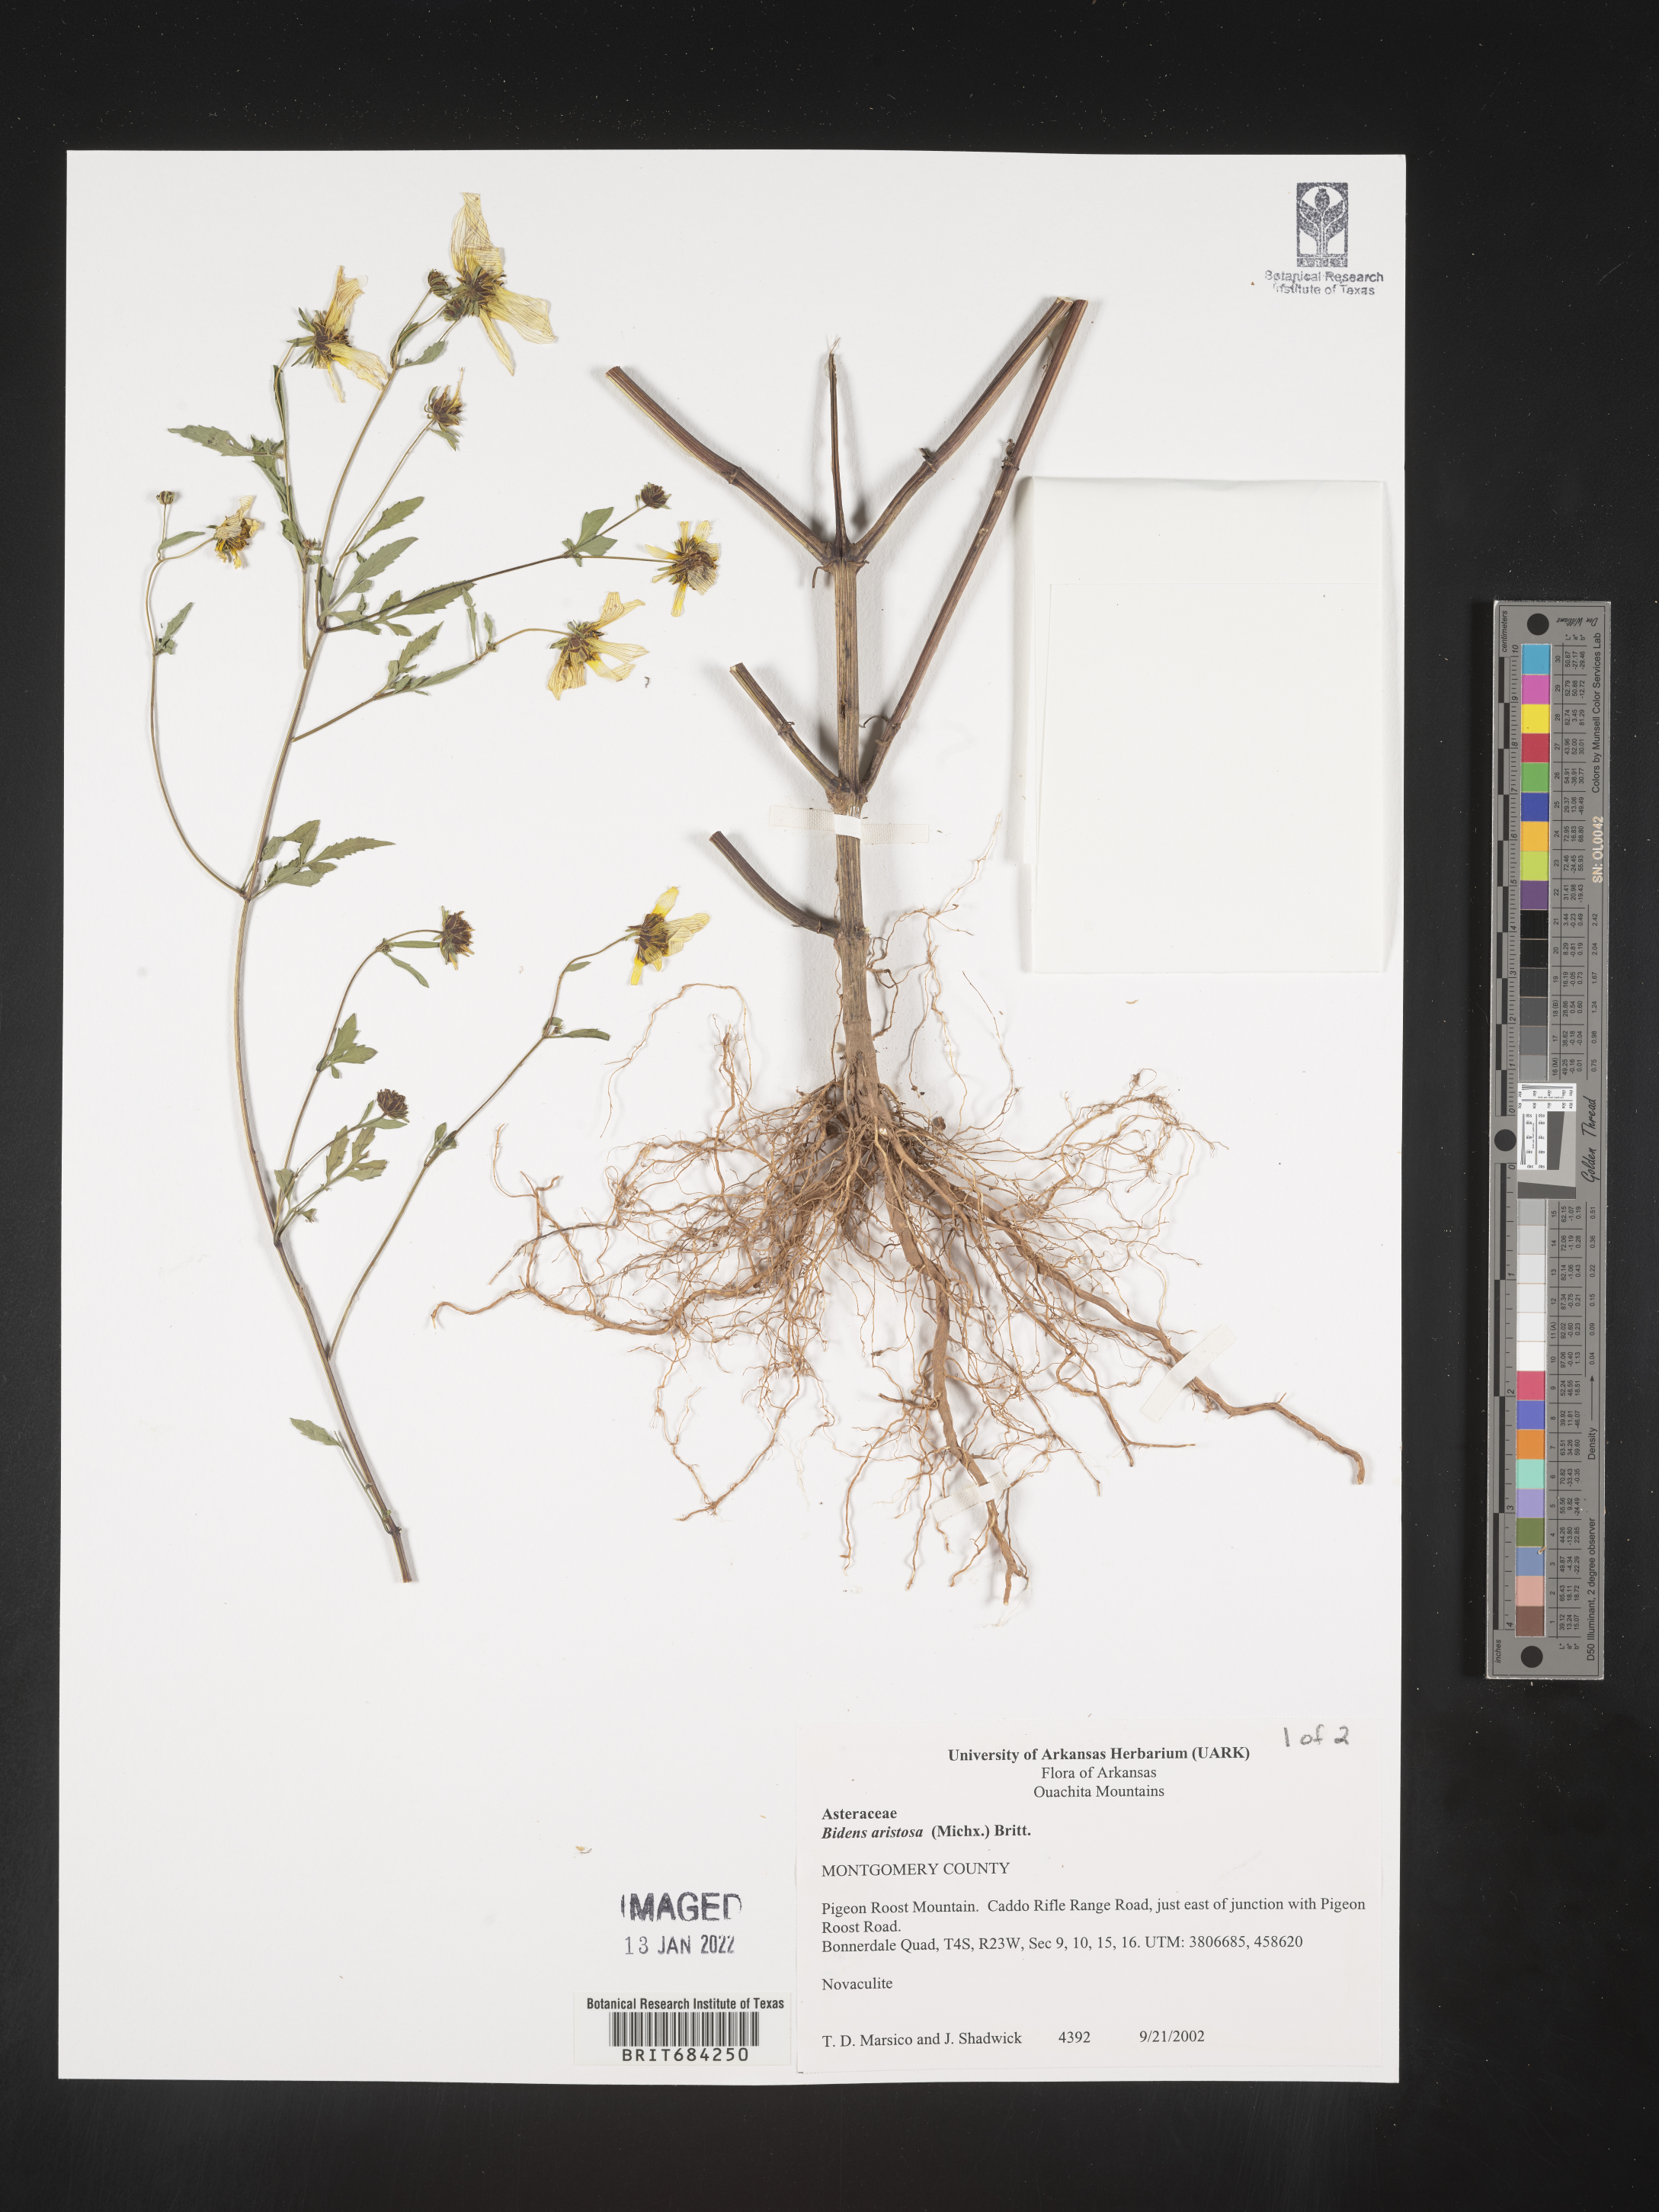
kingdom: Plantae
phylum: Tracheophyta
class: Magnoliopsida
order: Asterales
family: Asteraceae
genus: Bidens
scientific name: Bidens aristosa
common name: Western tickseed
